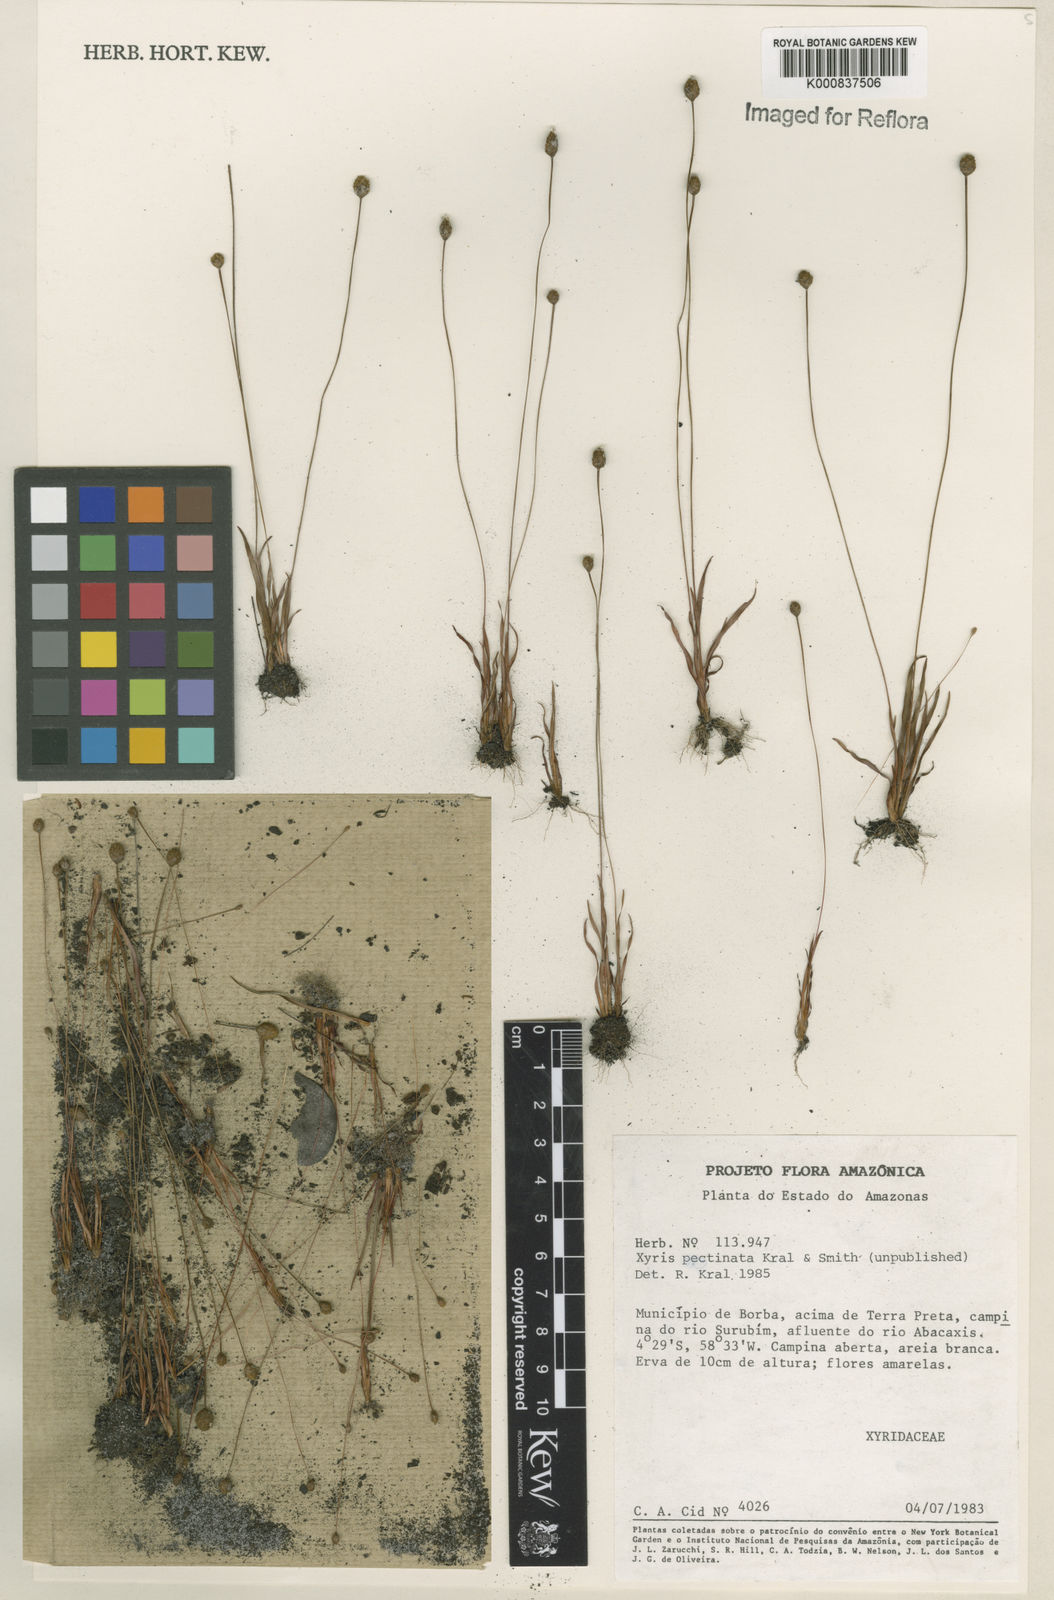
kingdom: Plantae
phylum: Tracheophyta
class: Liliopsida
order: Poales
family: Xyridaceae
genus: Xyris
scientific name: Xyris pectinata
